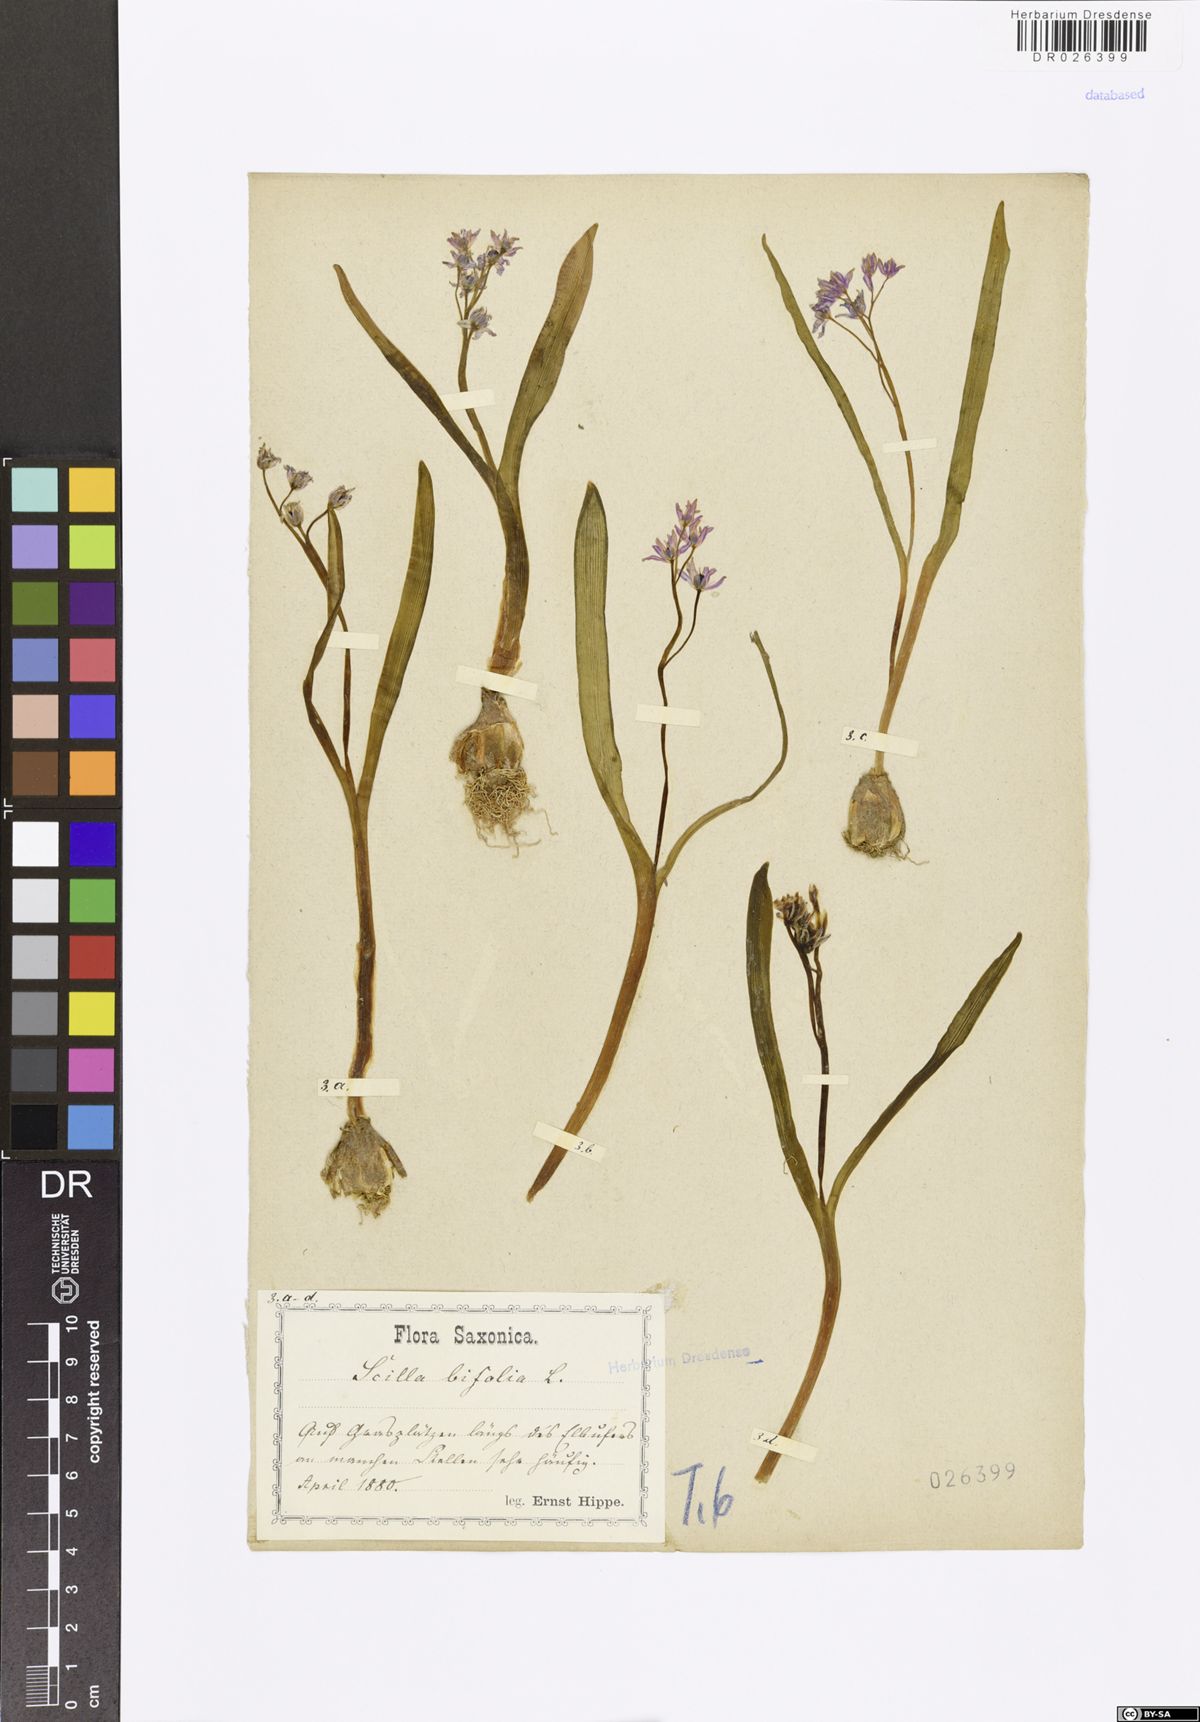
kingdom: Plantae
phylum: Tracheophyta
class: Liliopsida
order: Asparagales
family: Asparagaceae
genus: Scilla
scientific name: Scilla vindobonensis
